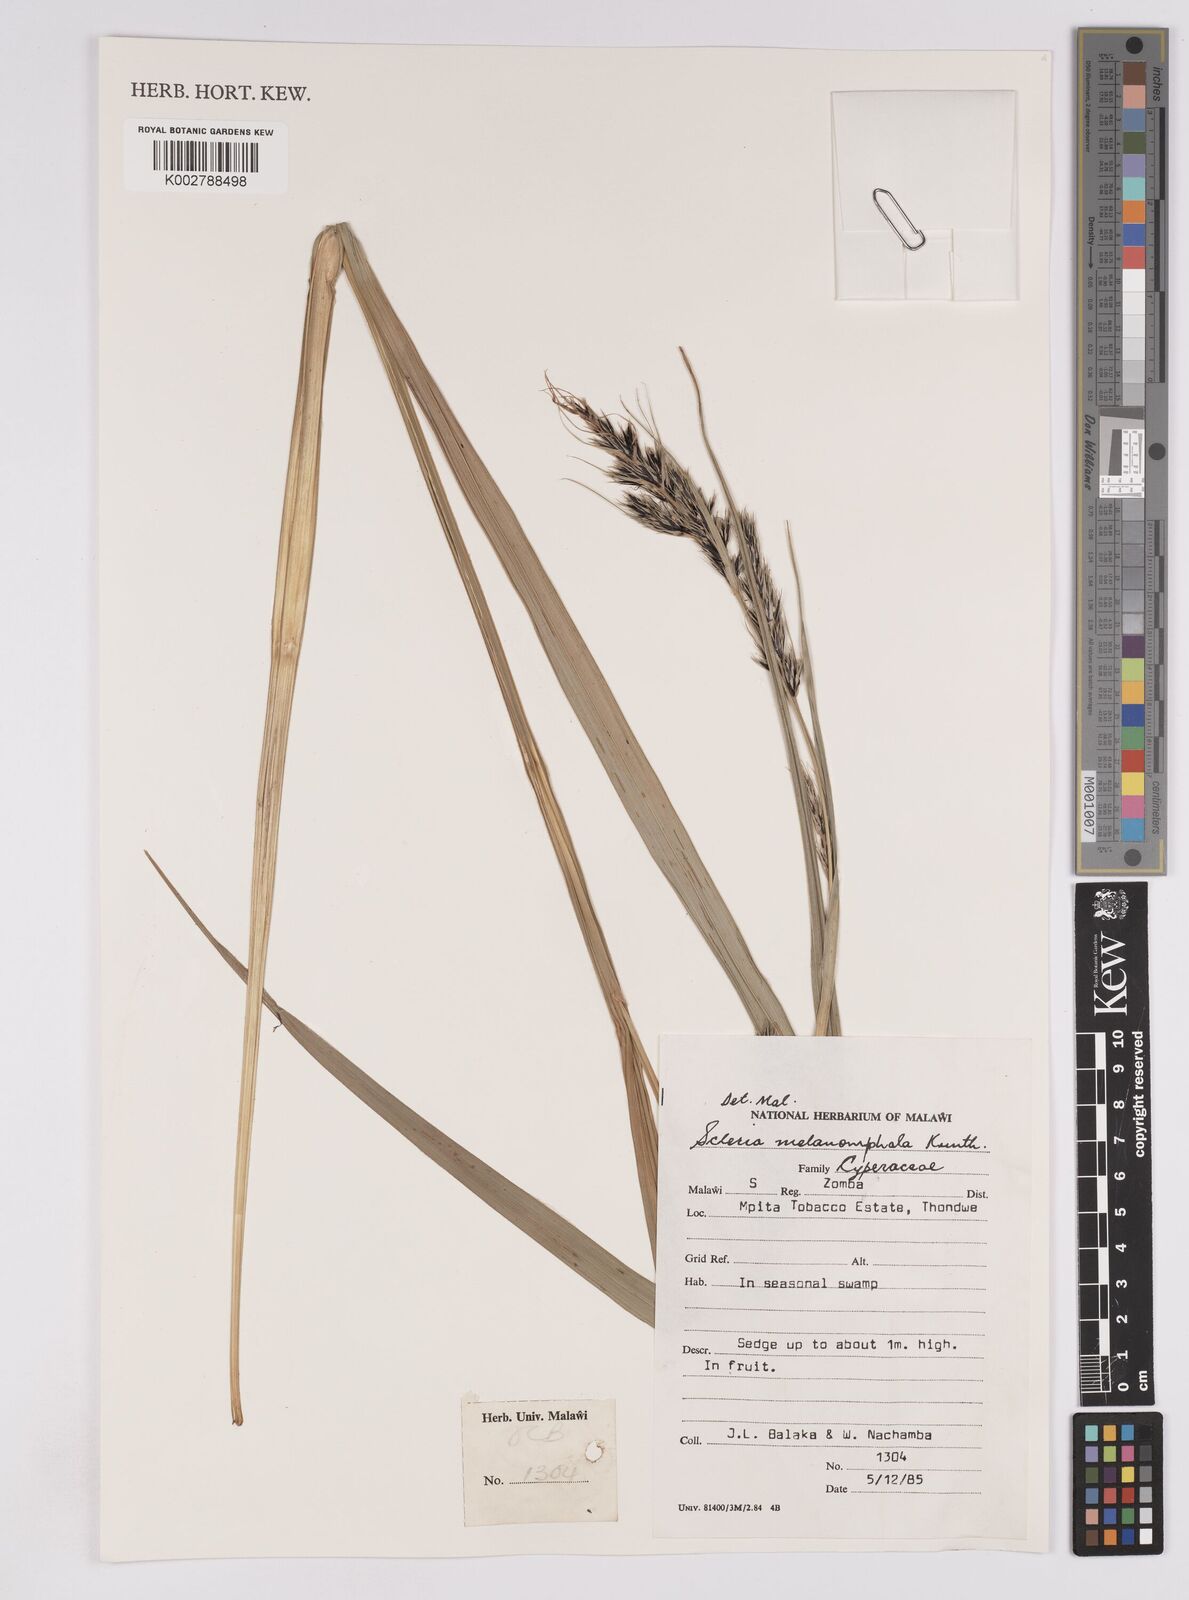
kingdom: Plantae
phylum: Tracheophyta
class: Liliopsida
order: Poales
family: Cyperaceae
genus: Scleria
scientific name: Scleria melanomphala
